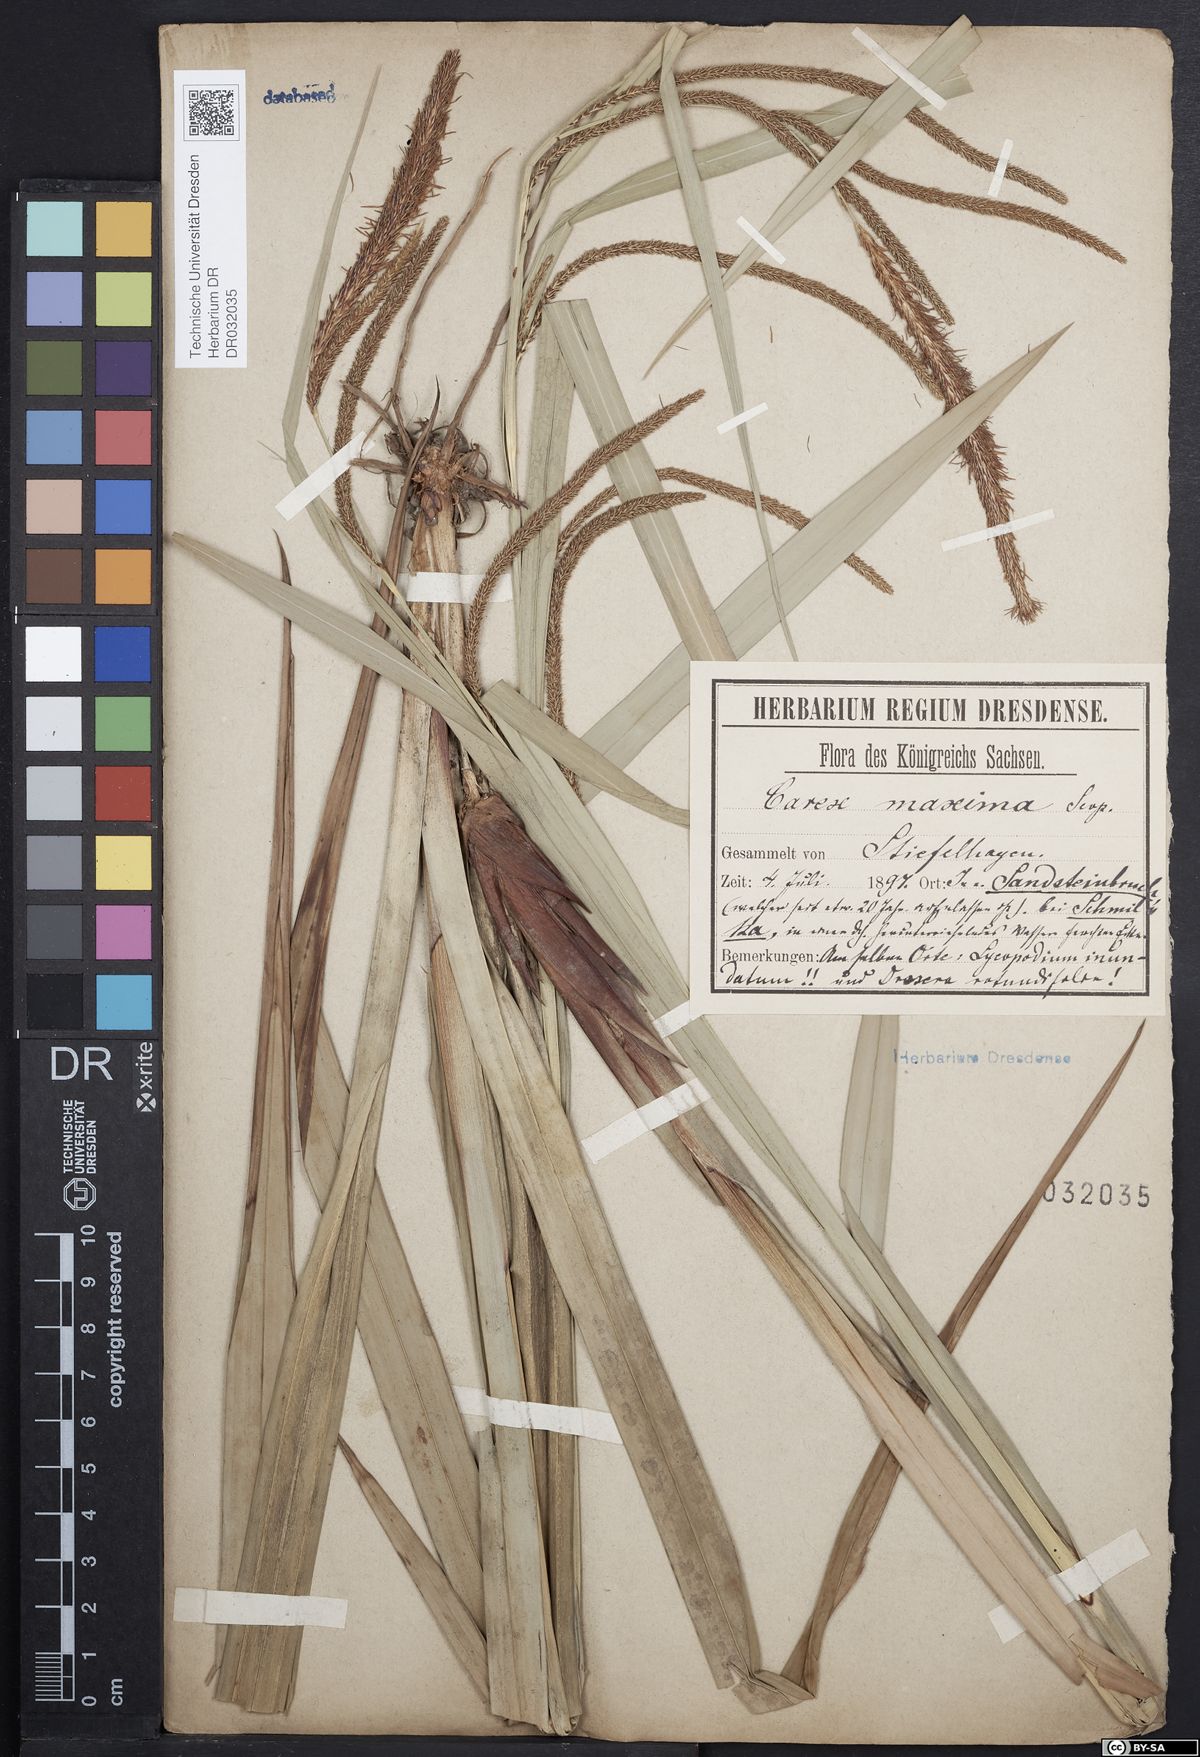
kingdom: Plantae
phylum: Tracheophyta
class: Liliopsida
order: Poales
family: Cyperaceae
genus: Carex
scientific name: Carex pendula
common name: Pendulous sedge
